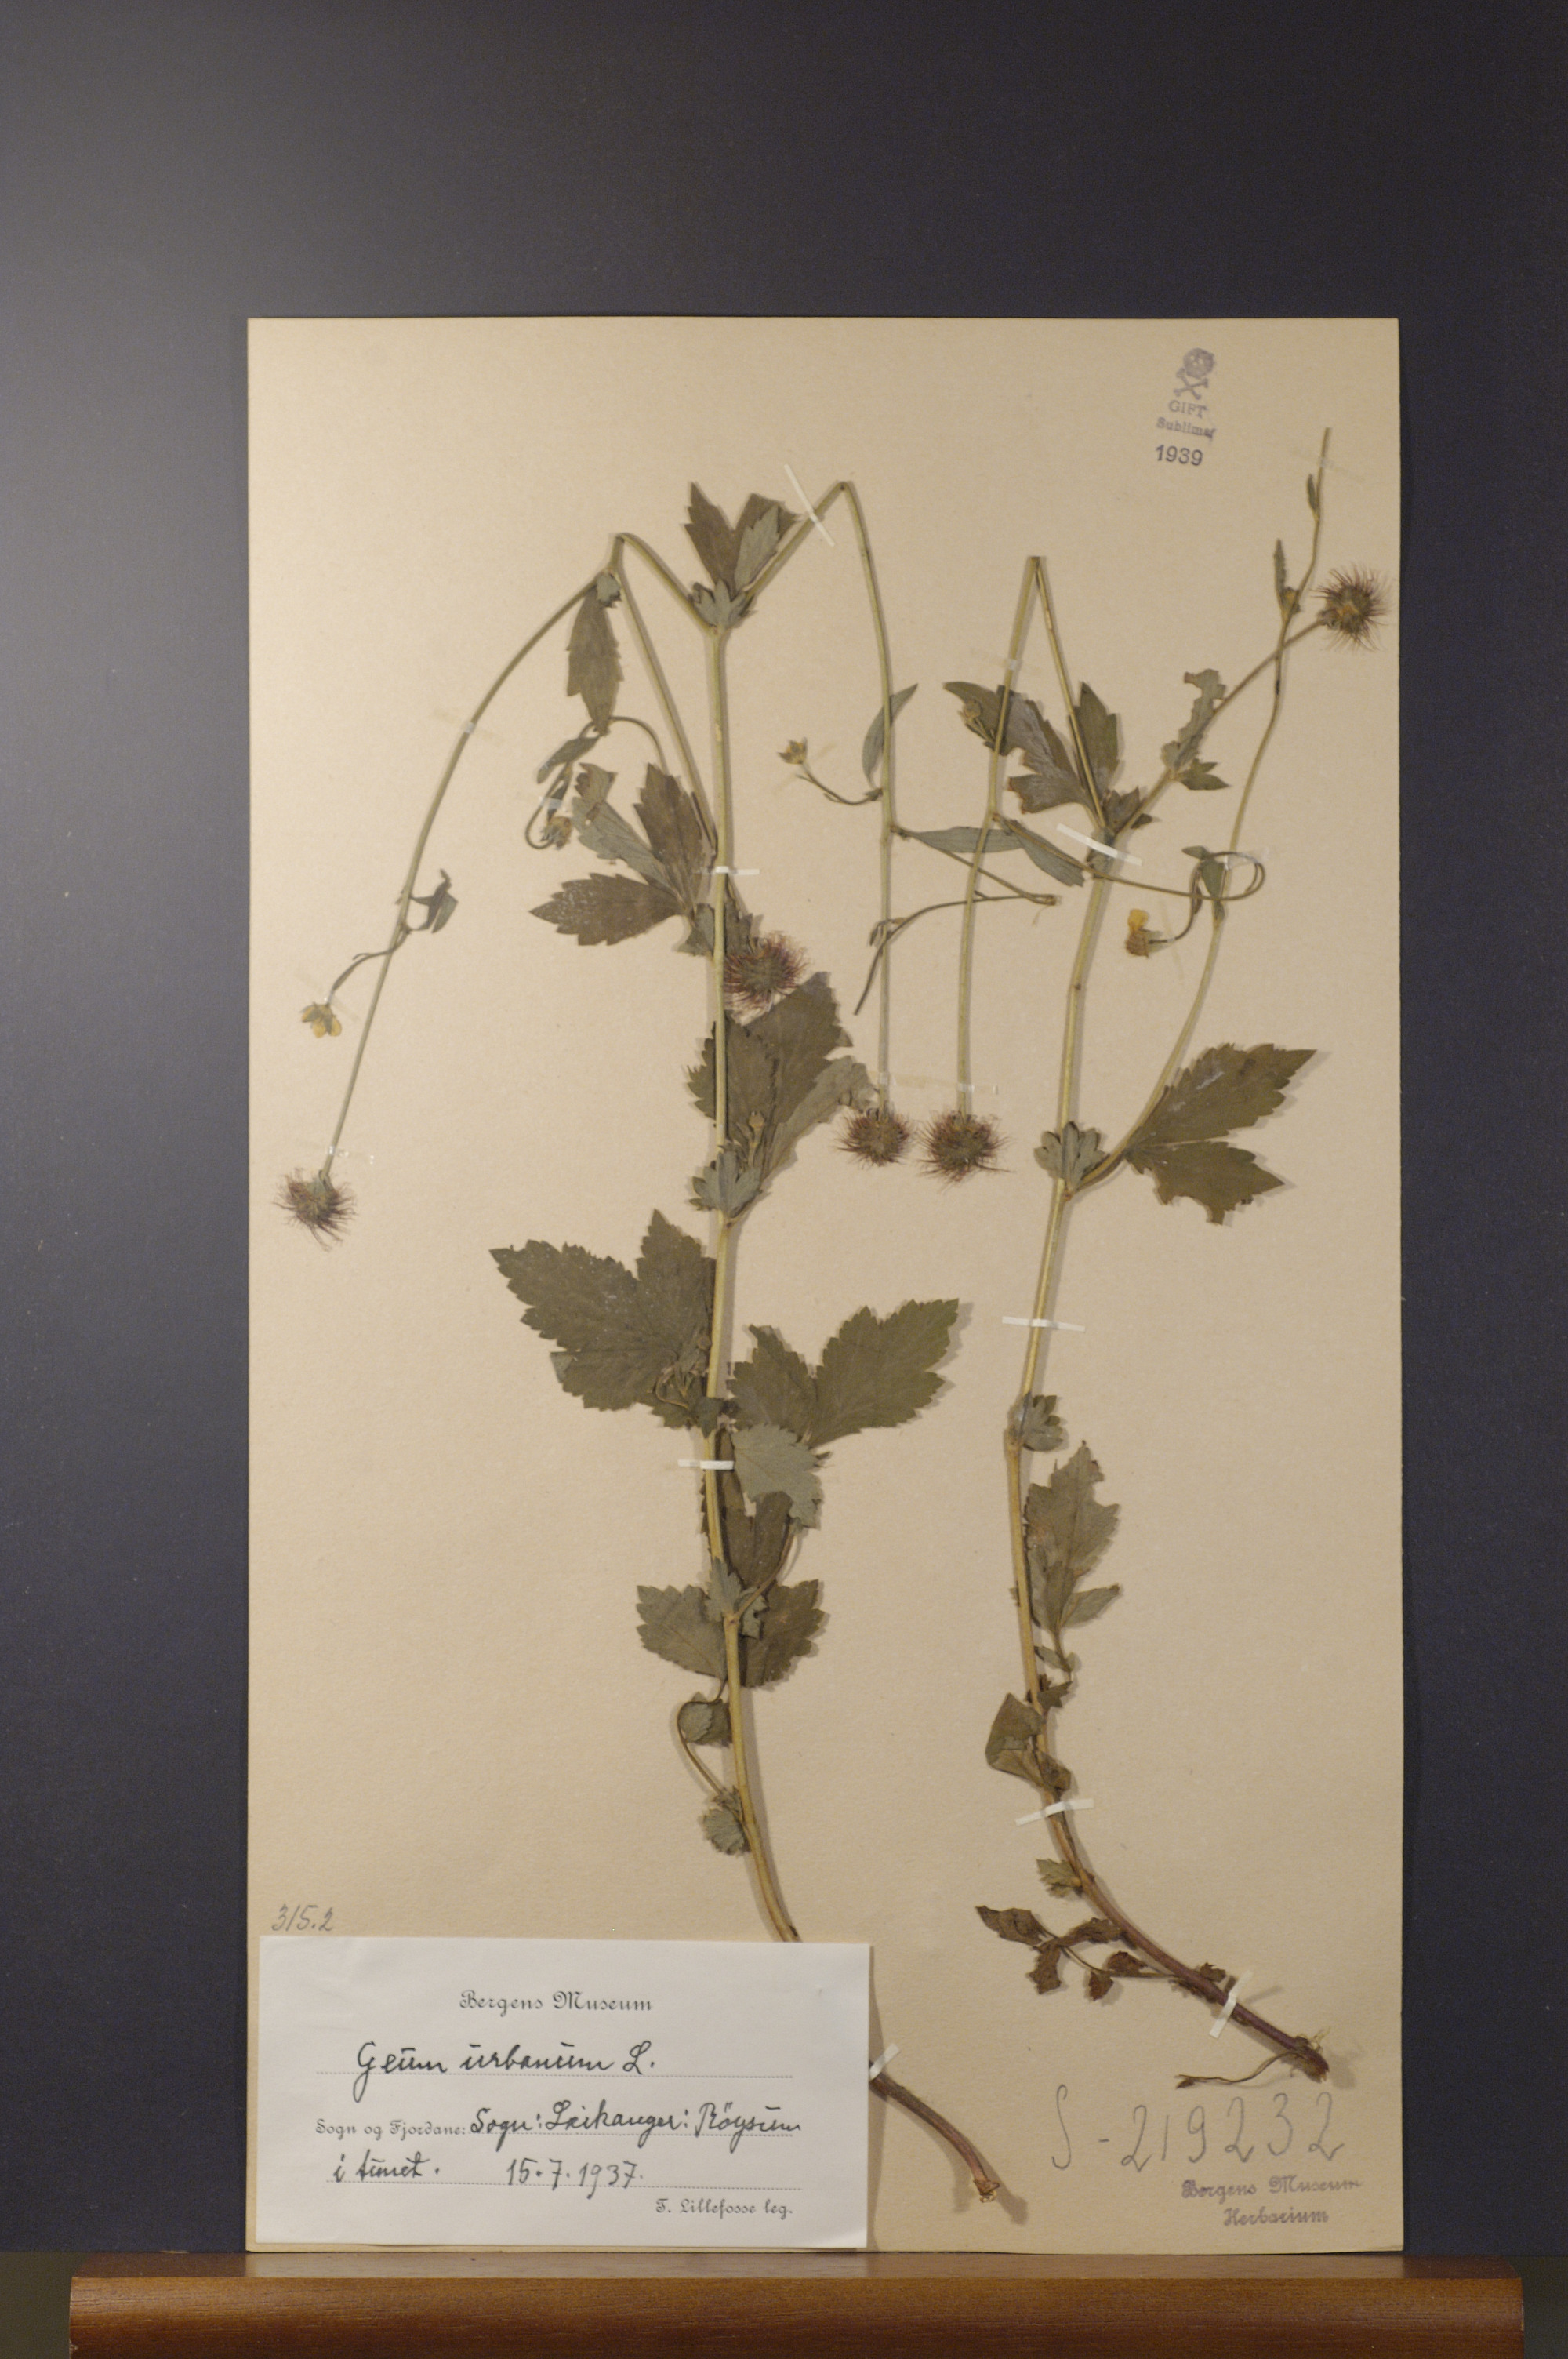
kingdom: Plantae
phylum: Tracheophyta
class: Magnoliopsida
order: Rosales
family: Rosaceae
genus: Geum
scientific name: Geum urbanum
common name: Wood avens
